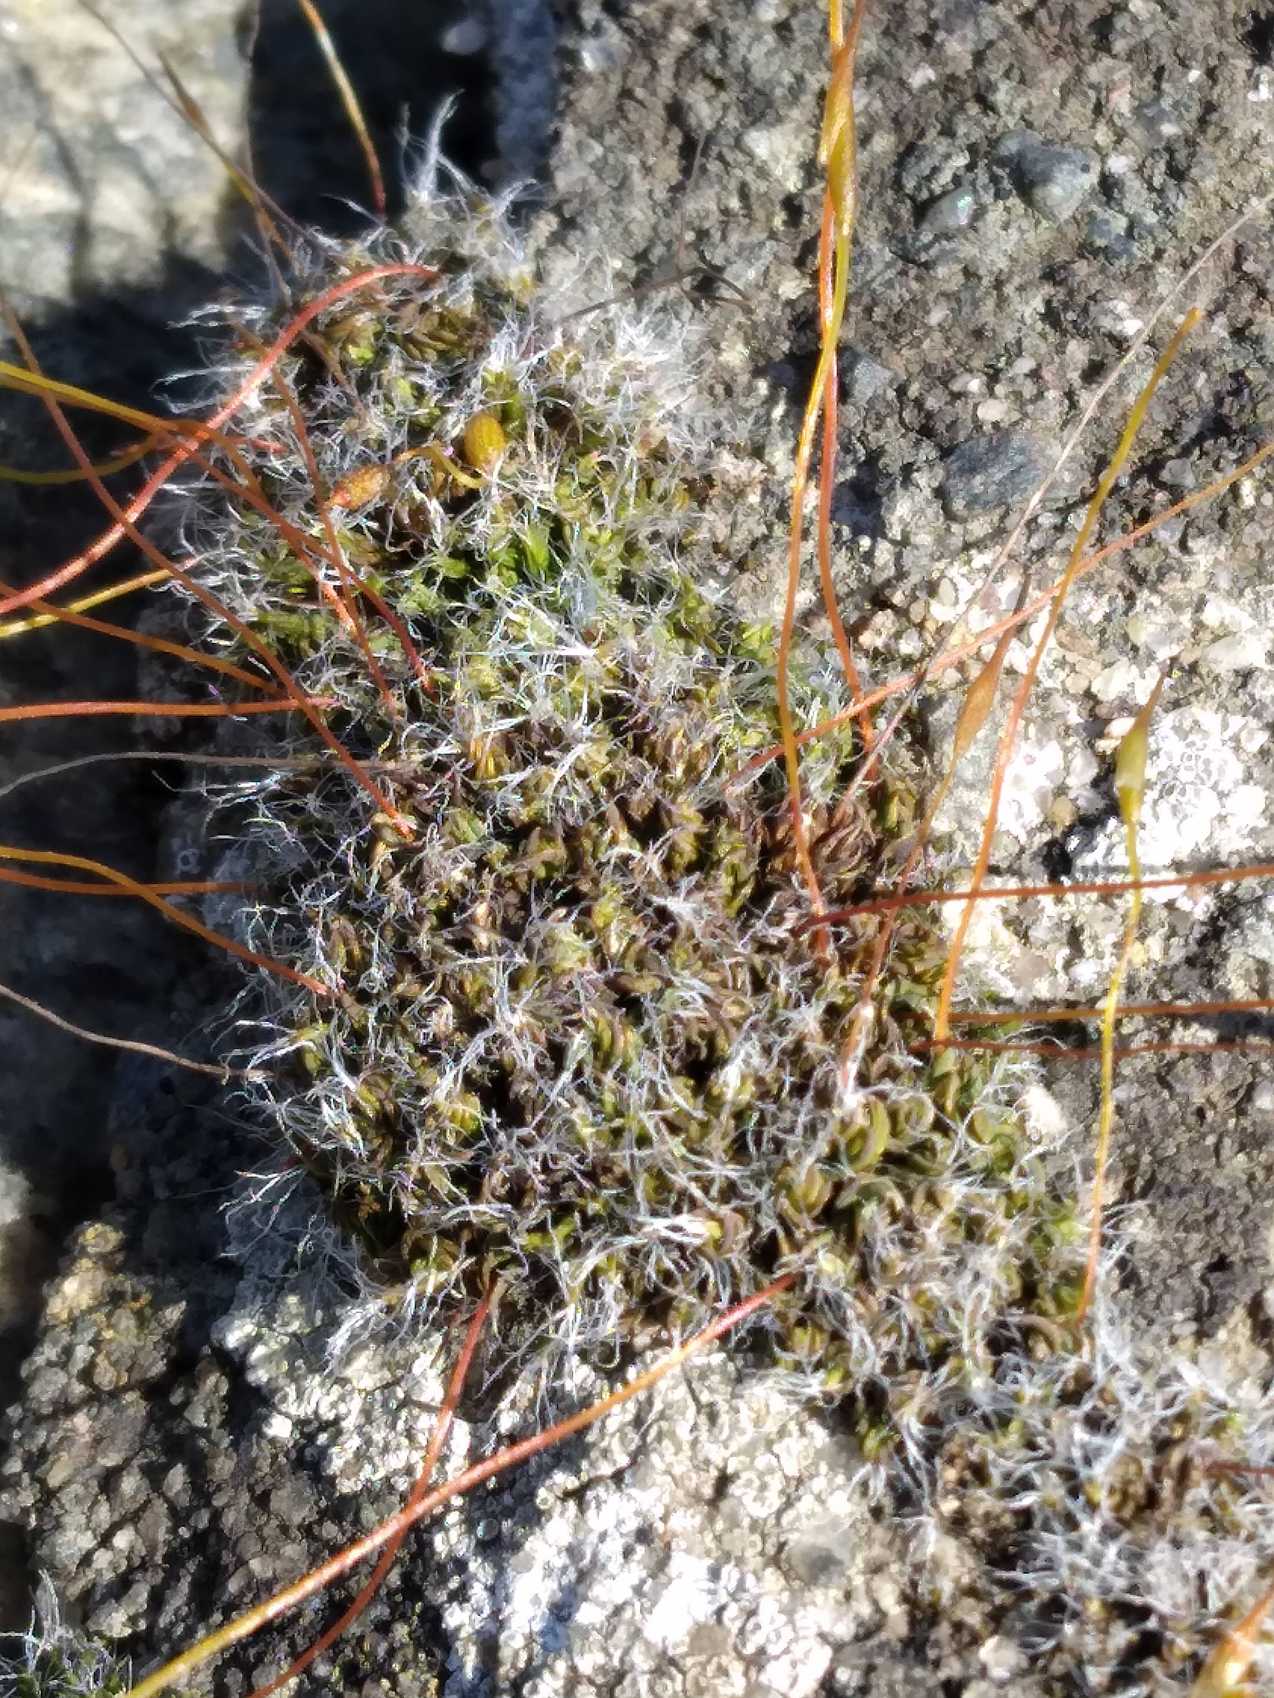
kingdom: Plantae
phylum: Bryophyta
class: Bryopsida
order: Pottiales
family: Pottiaceae
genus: Tortula
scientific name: Tortula muralis
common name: Mur-snotand
